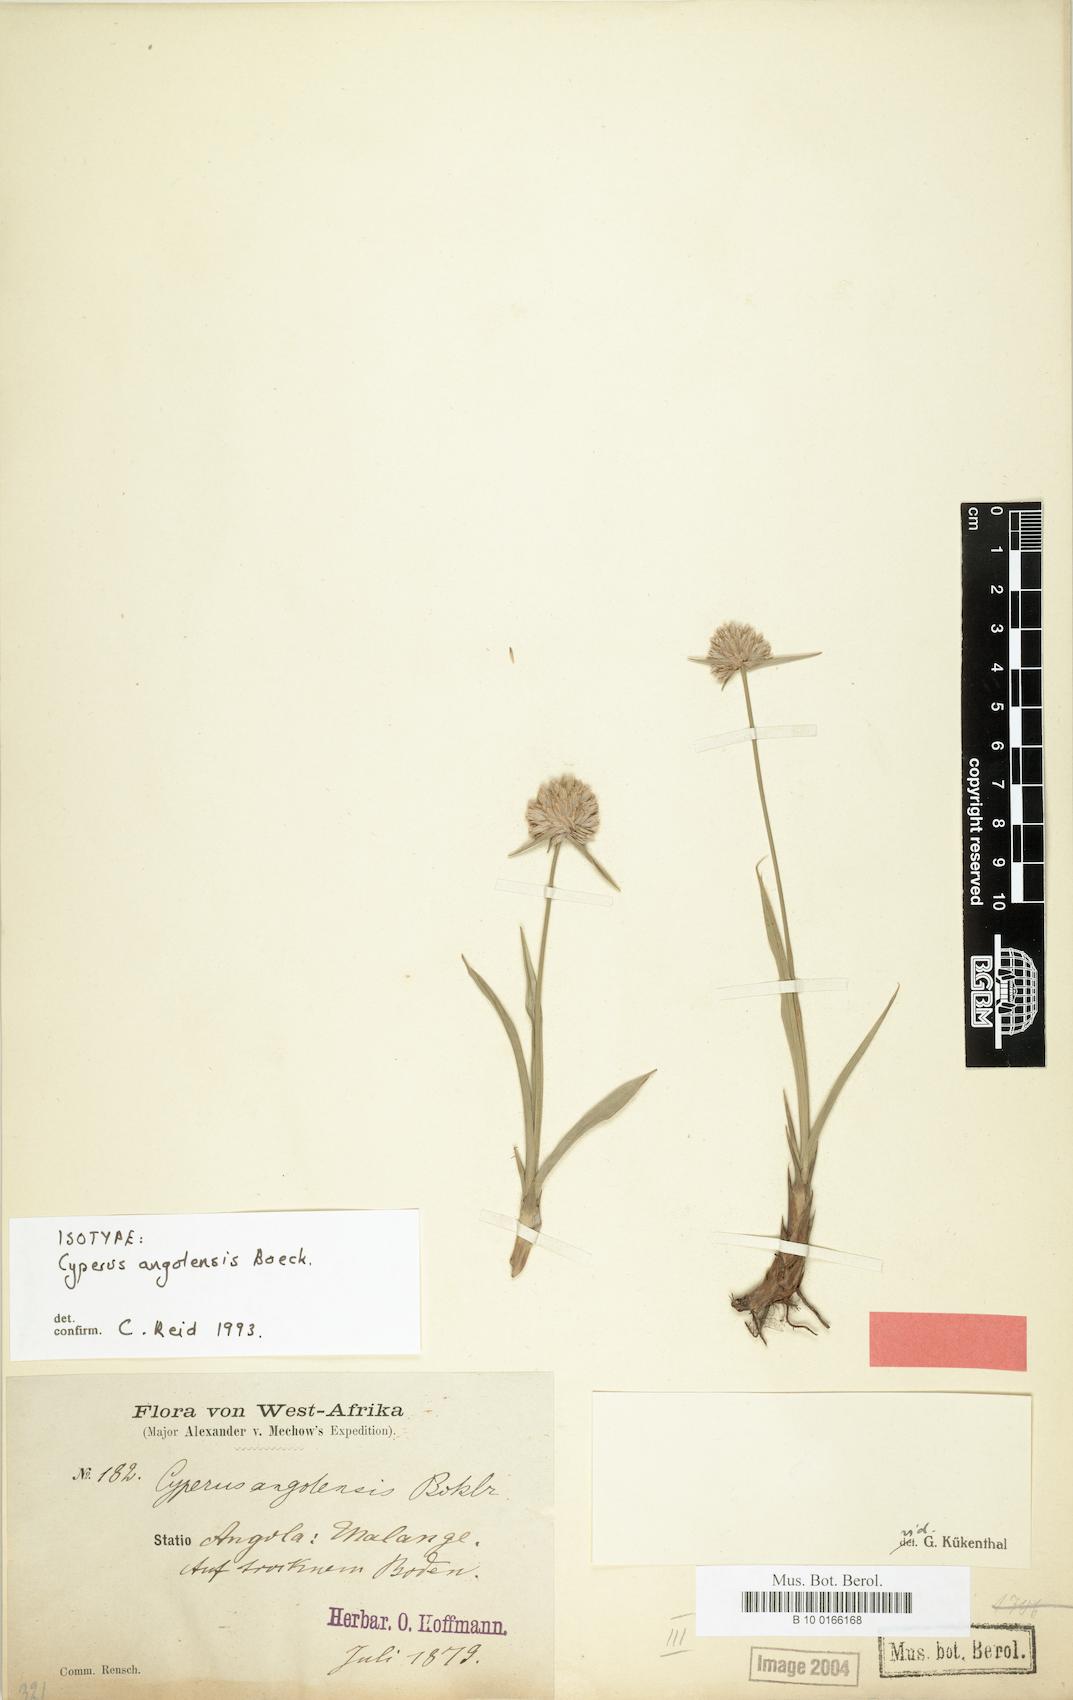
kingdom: Plantae
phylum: Tracheophyta
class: Liliopsida
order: Poales
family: Cyperaceae
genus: Cyperus
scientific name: Cyperus angolensis
